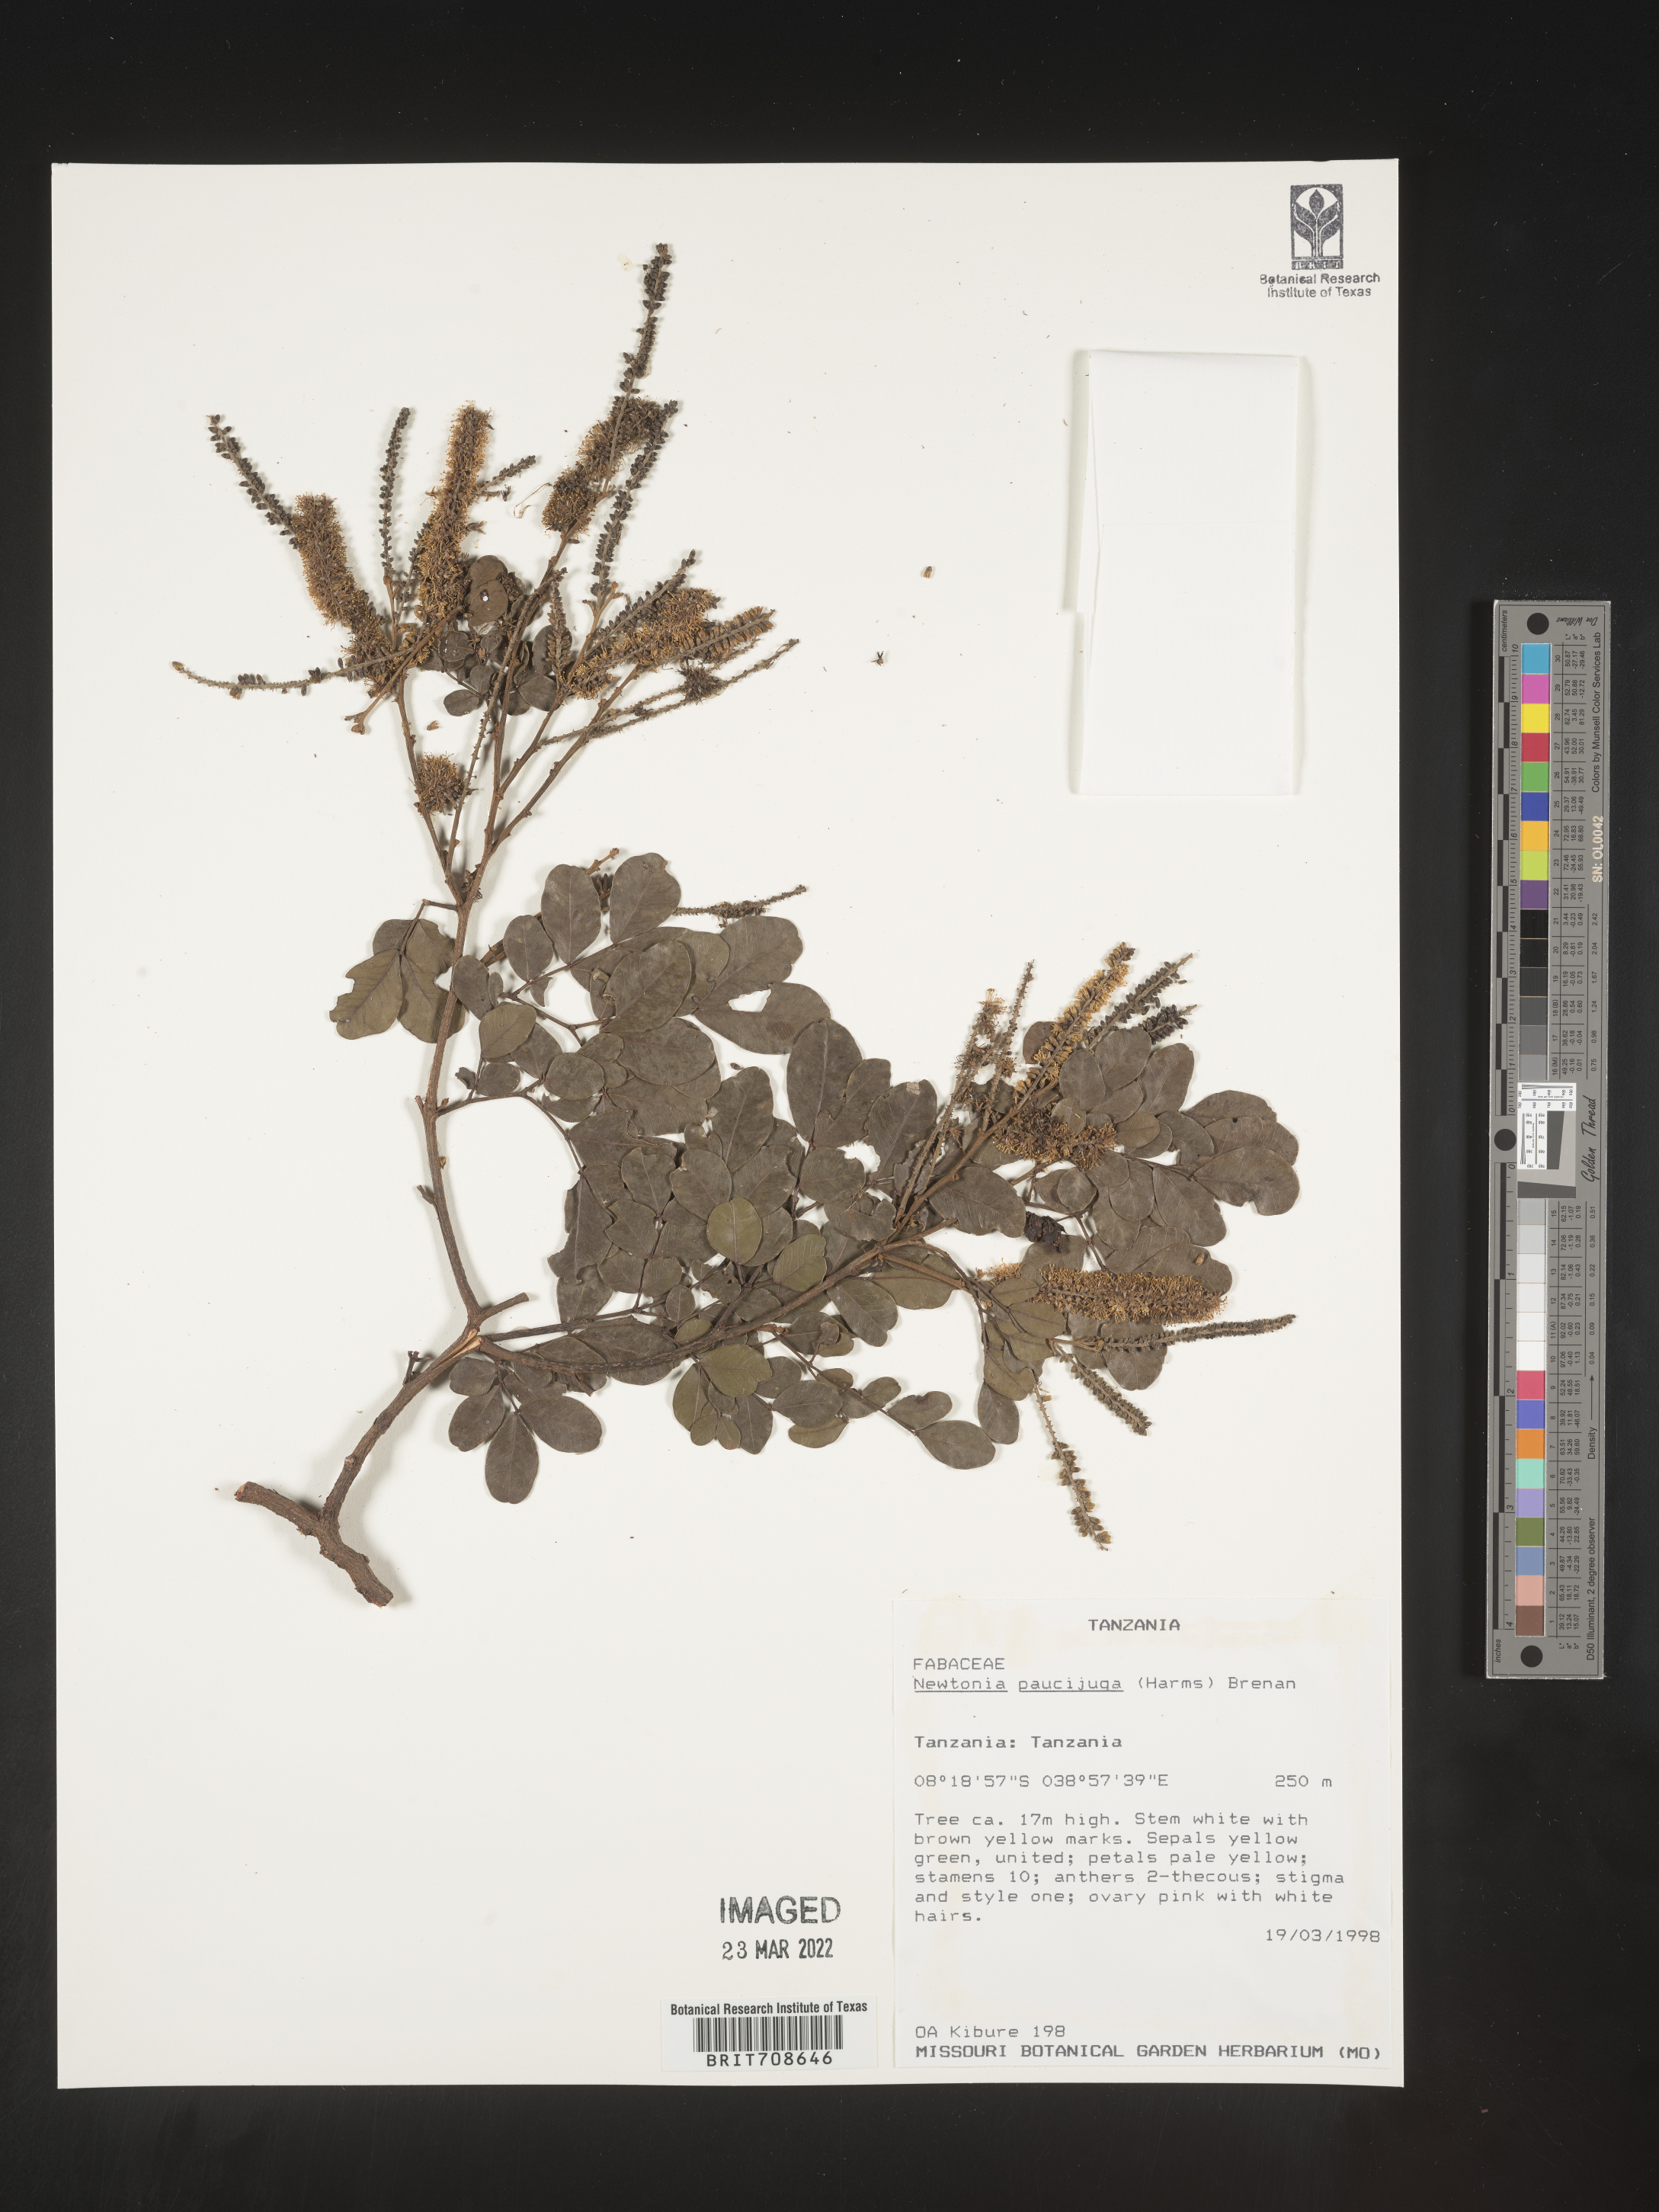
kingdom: Plantae
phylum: Tracheophyta
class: Magnoliopsida
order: Fabales
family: Fabaceae
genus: Newtonia
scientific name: Newtonia
